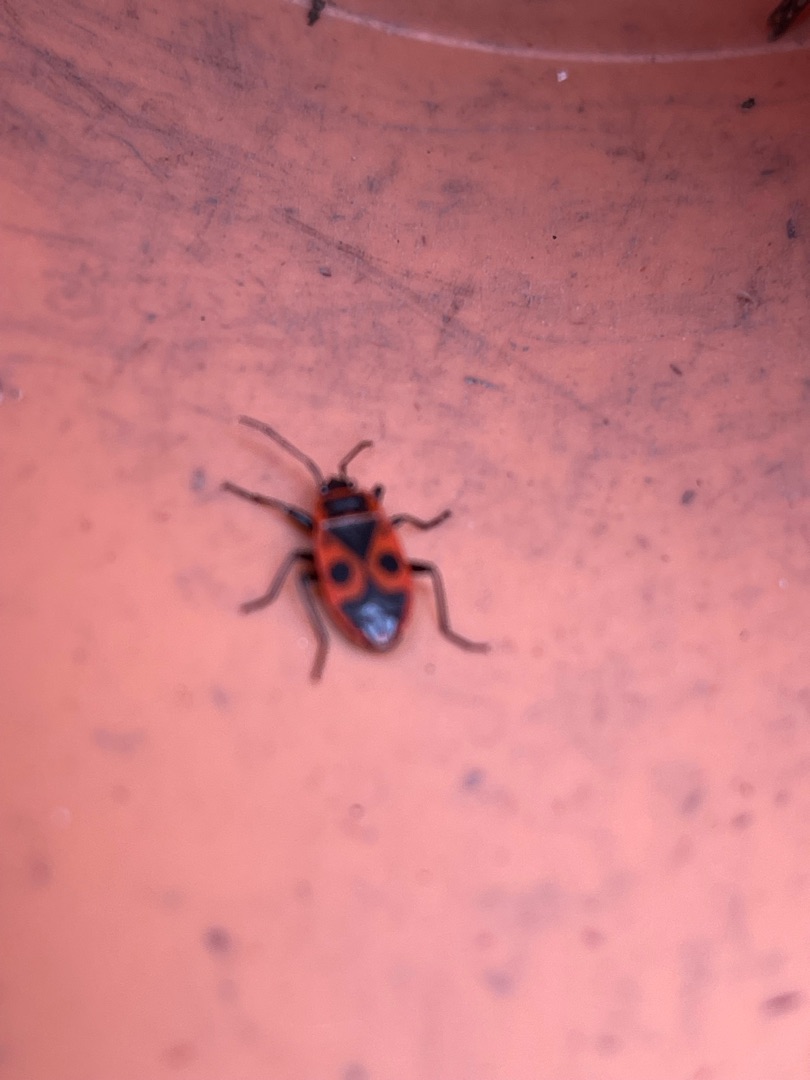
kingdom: Animalia
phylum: Arthropoda
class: Insecta
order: Hemiptera
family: Pyrrhocoridae
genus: Pyrrhocoris
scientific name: Pyrrhocoris apterus
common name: Ildtæge
